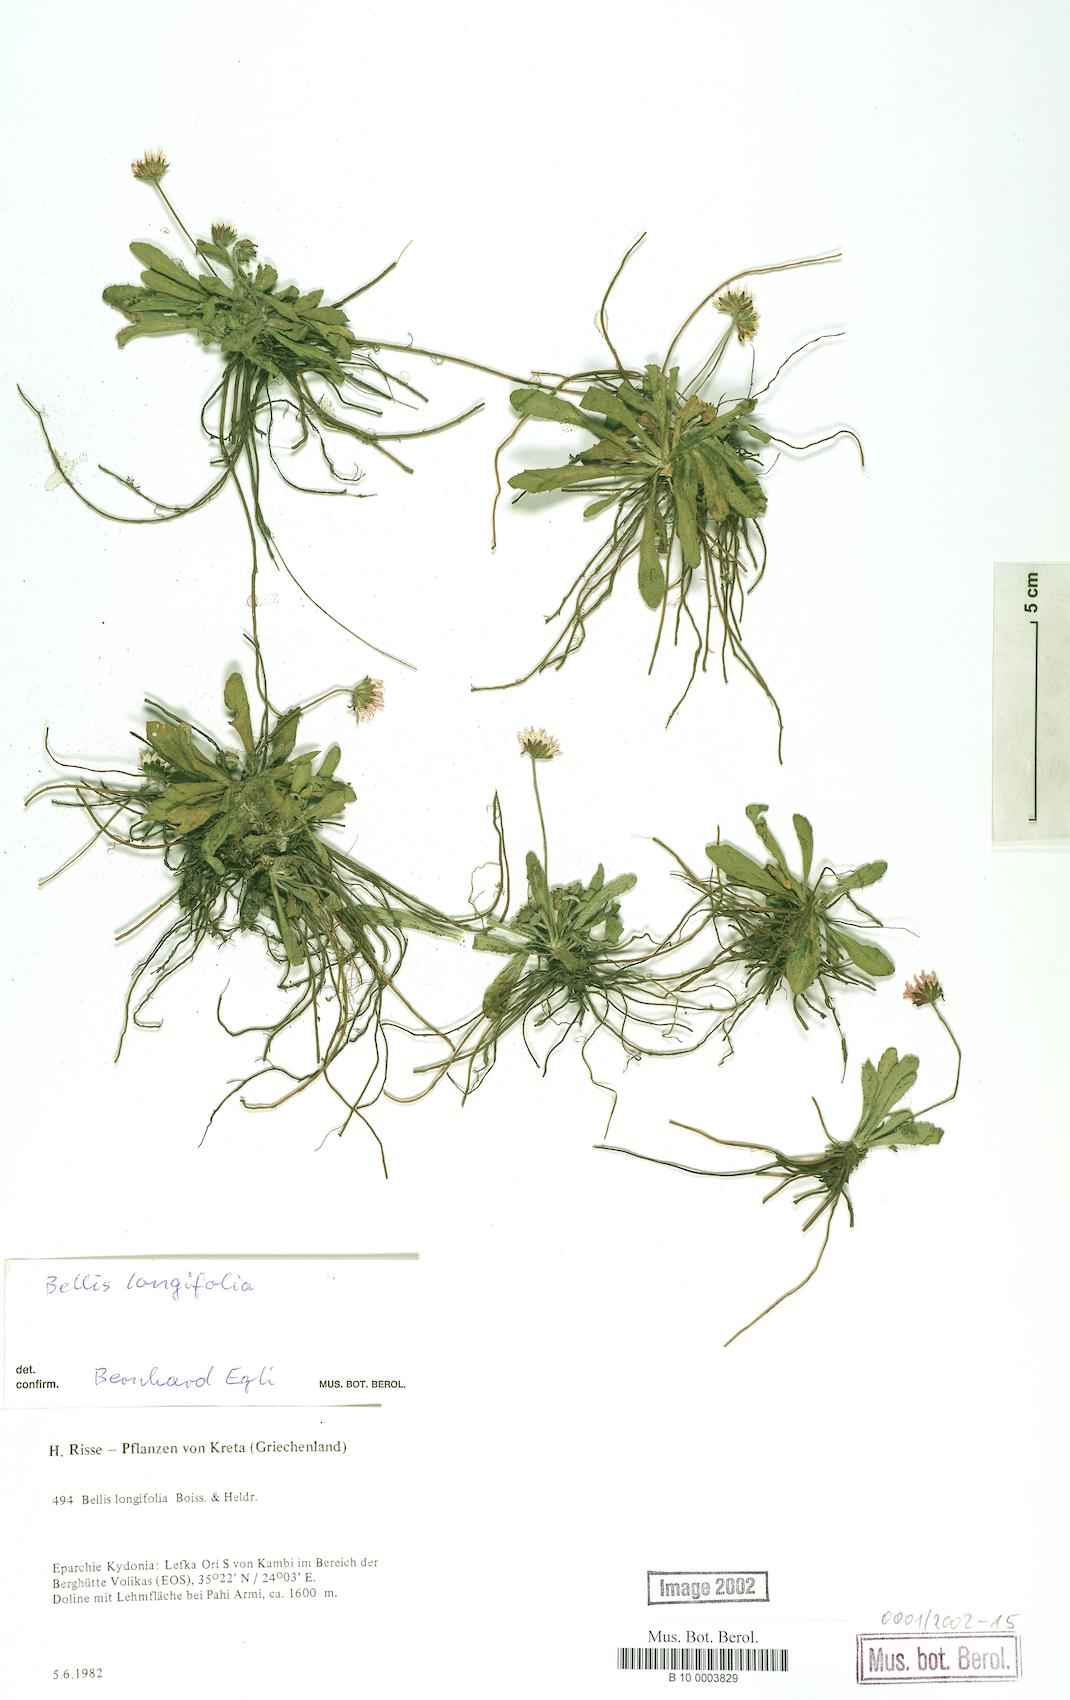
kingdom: Plantae
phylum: Tracheophyta
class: Magnoliopsida
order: Asterales
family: Asteraceae
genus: Bellis
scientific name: Bellis longifolia
